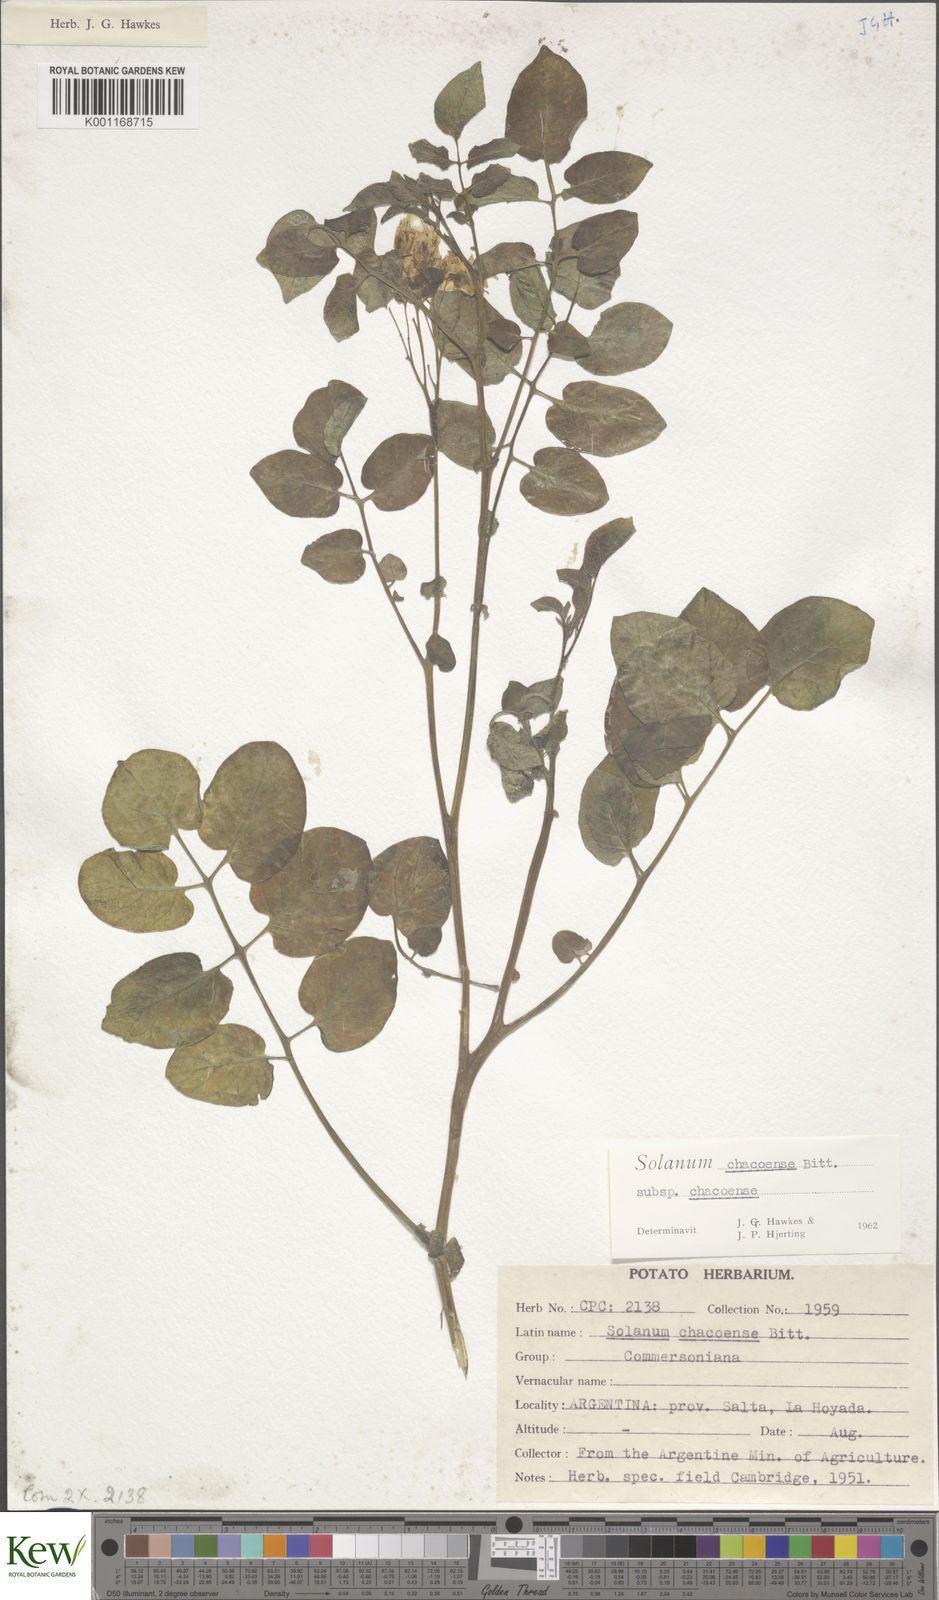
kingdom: Plantae
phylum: Tracheophyta
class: Magnoliopsida
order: Solanales
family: Solanaceae
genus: Solanum
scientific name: Solanum chacoense
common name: Chaco potato
